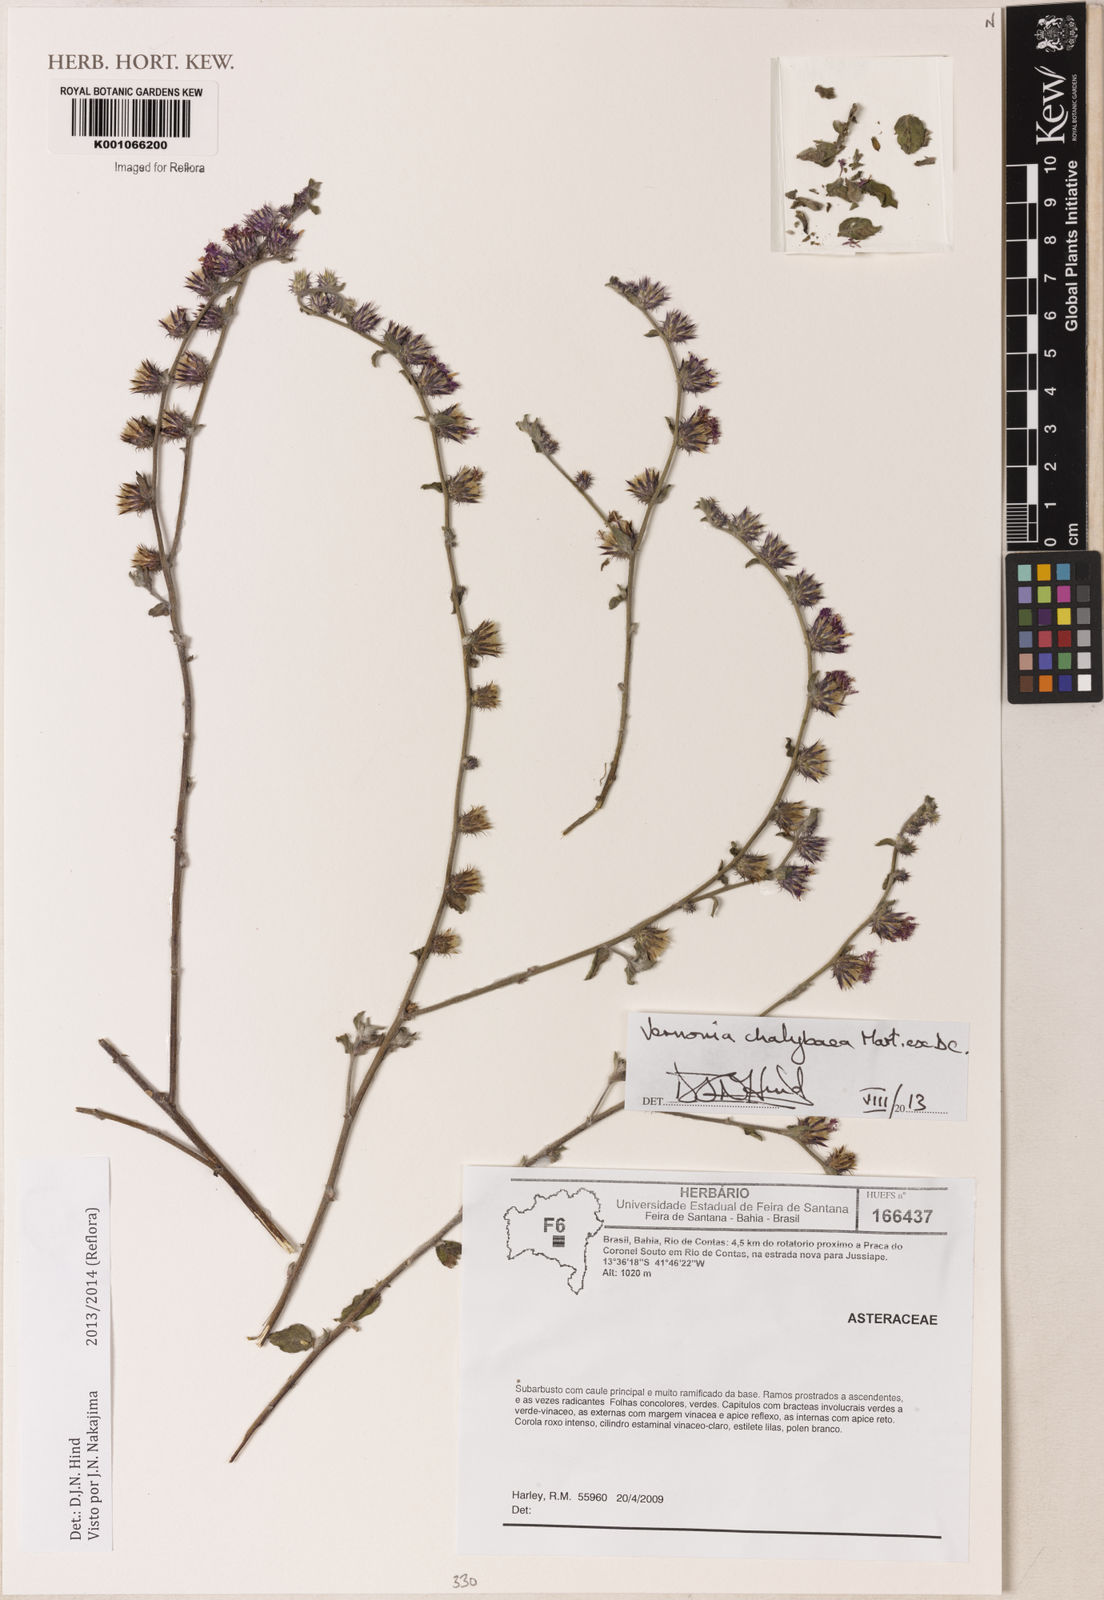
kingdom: Plantae
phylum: Tracheophyta
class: Magnoliopsida
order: Asterales
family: Asteraceae
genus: Lepidaploa
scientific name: Lepidaploa chalybaea
